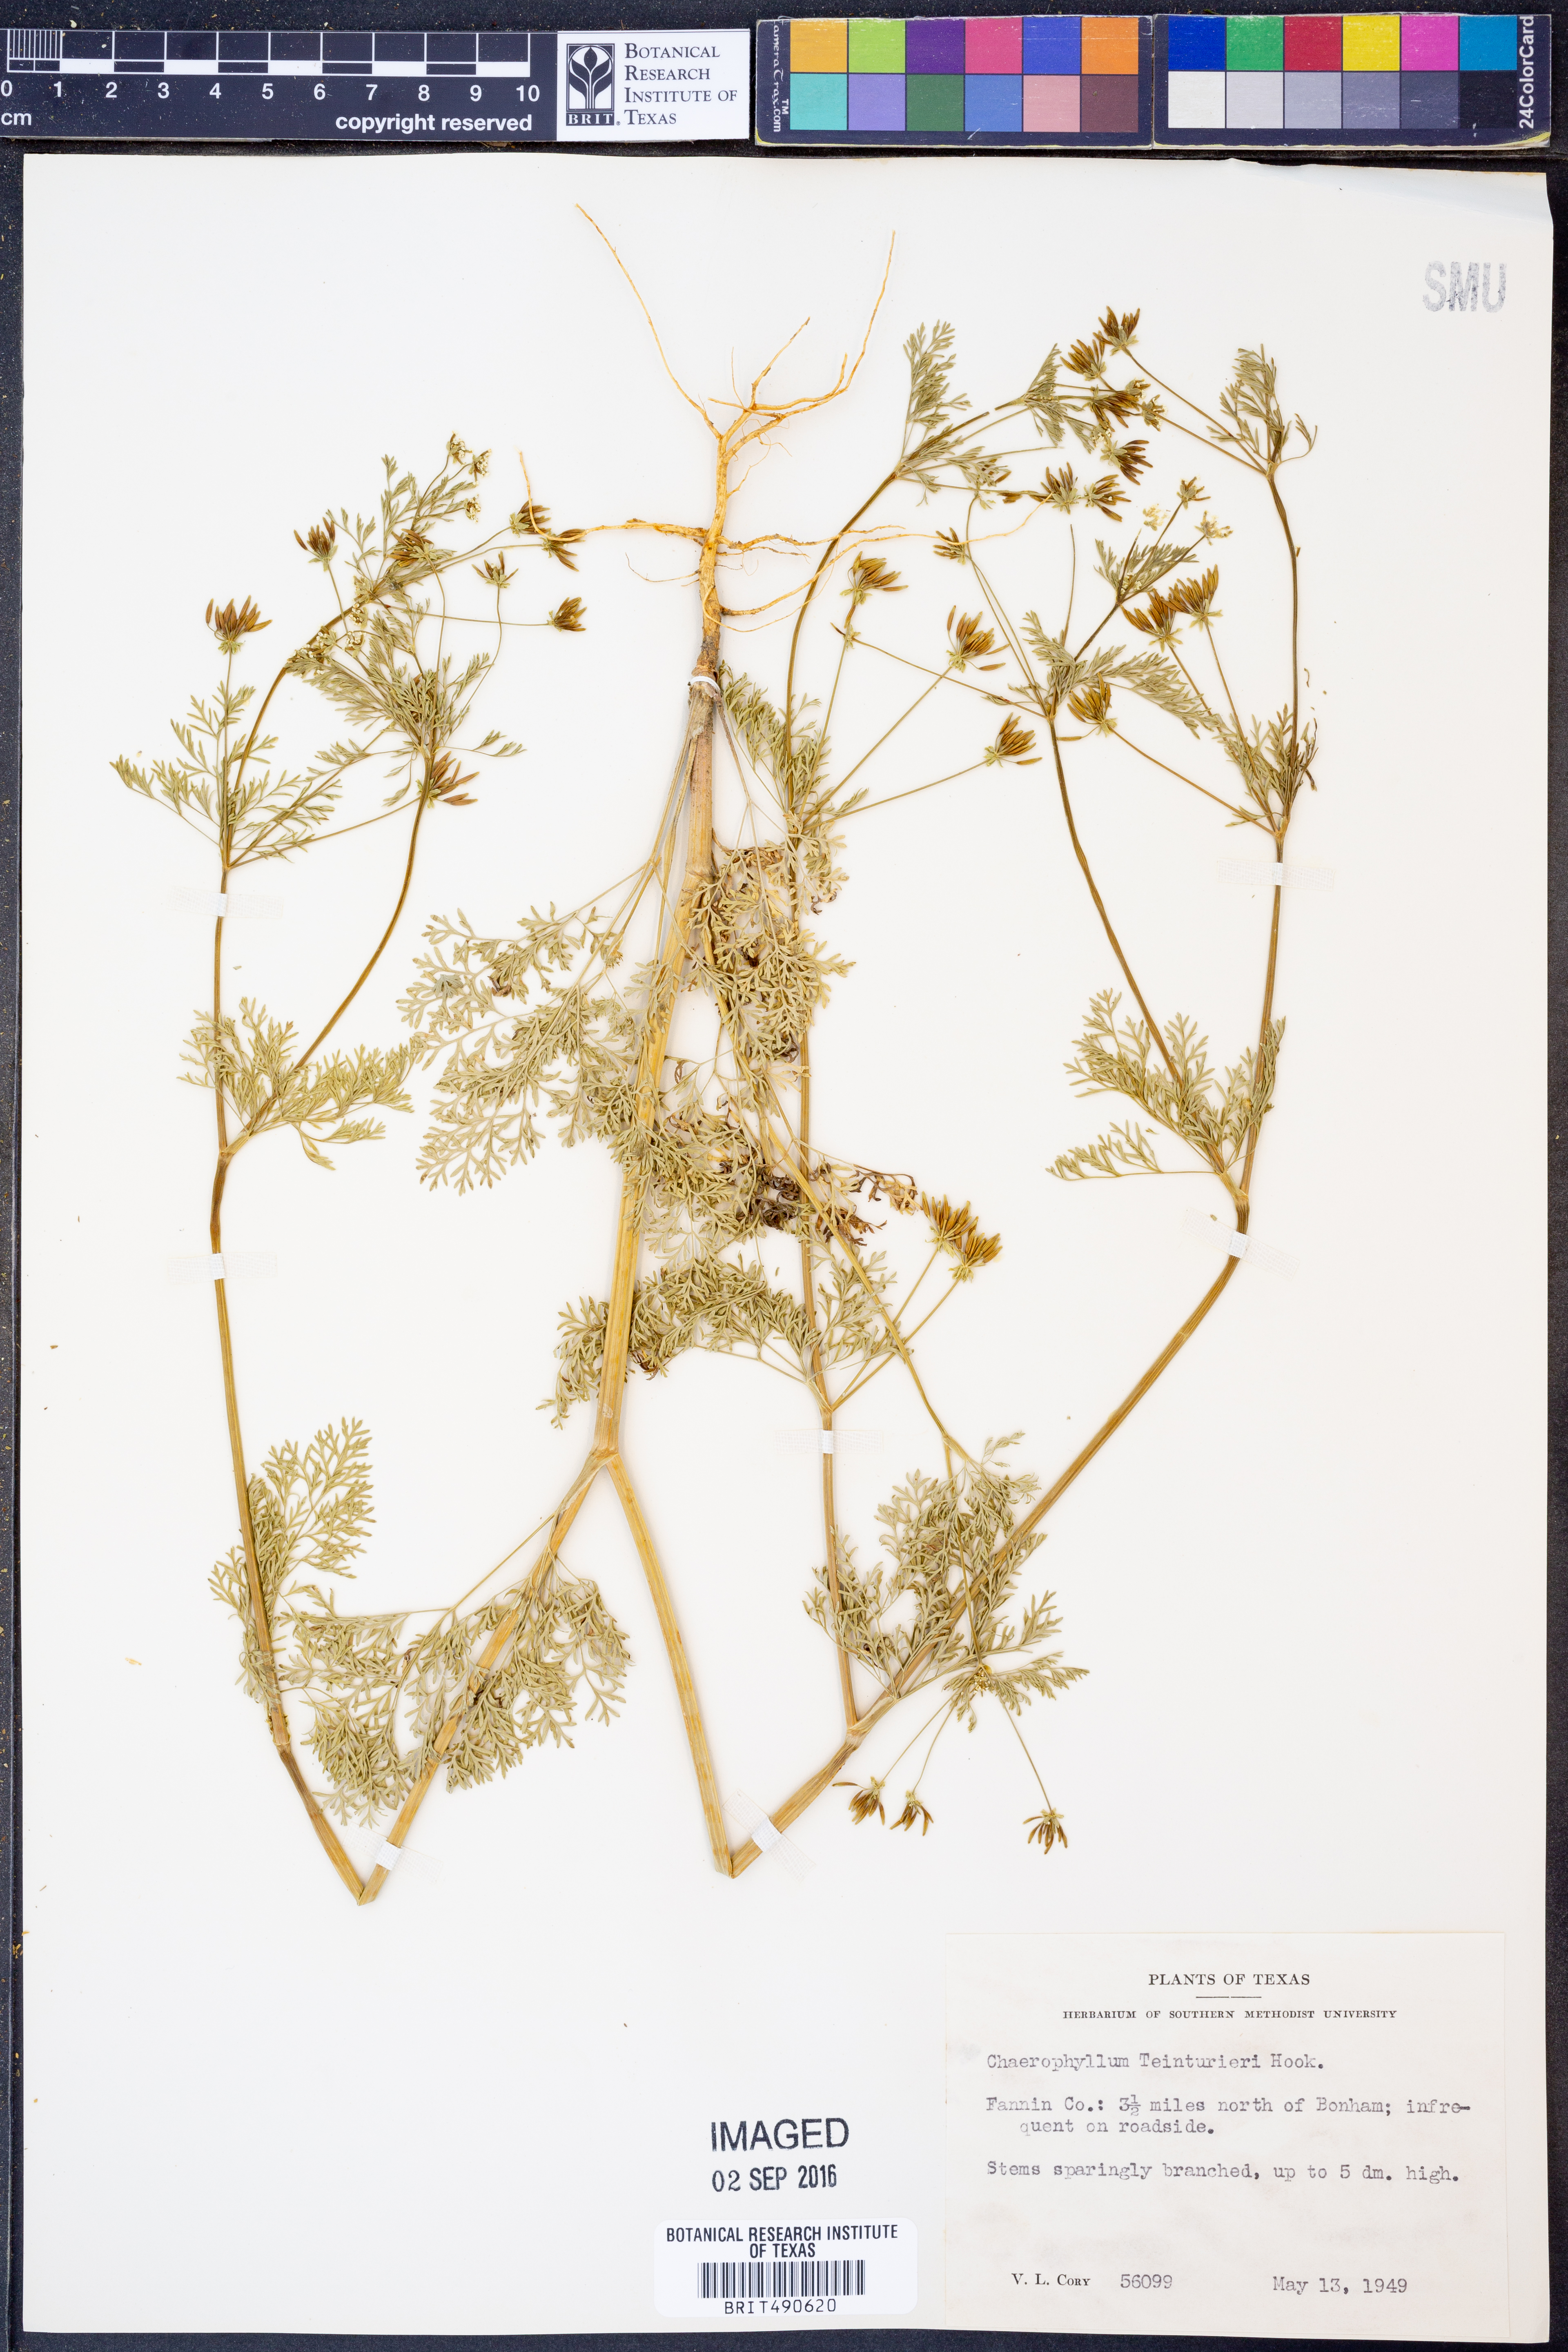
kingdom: Plantae
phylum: Tracheophyta
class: Magnoliopsida
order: Apiales
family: Apiaceae
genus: Chaerophyllum
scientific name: Chaerophyllum tainturieri
